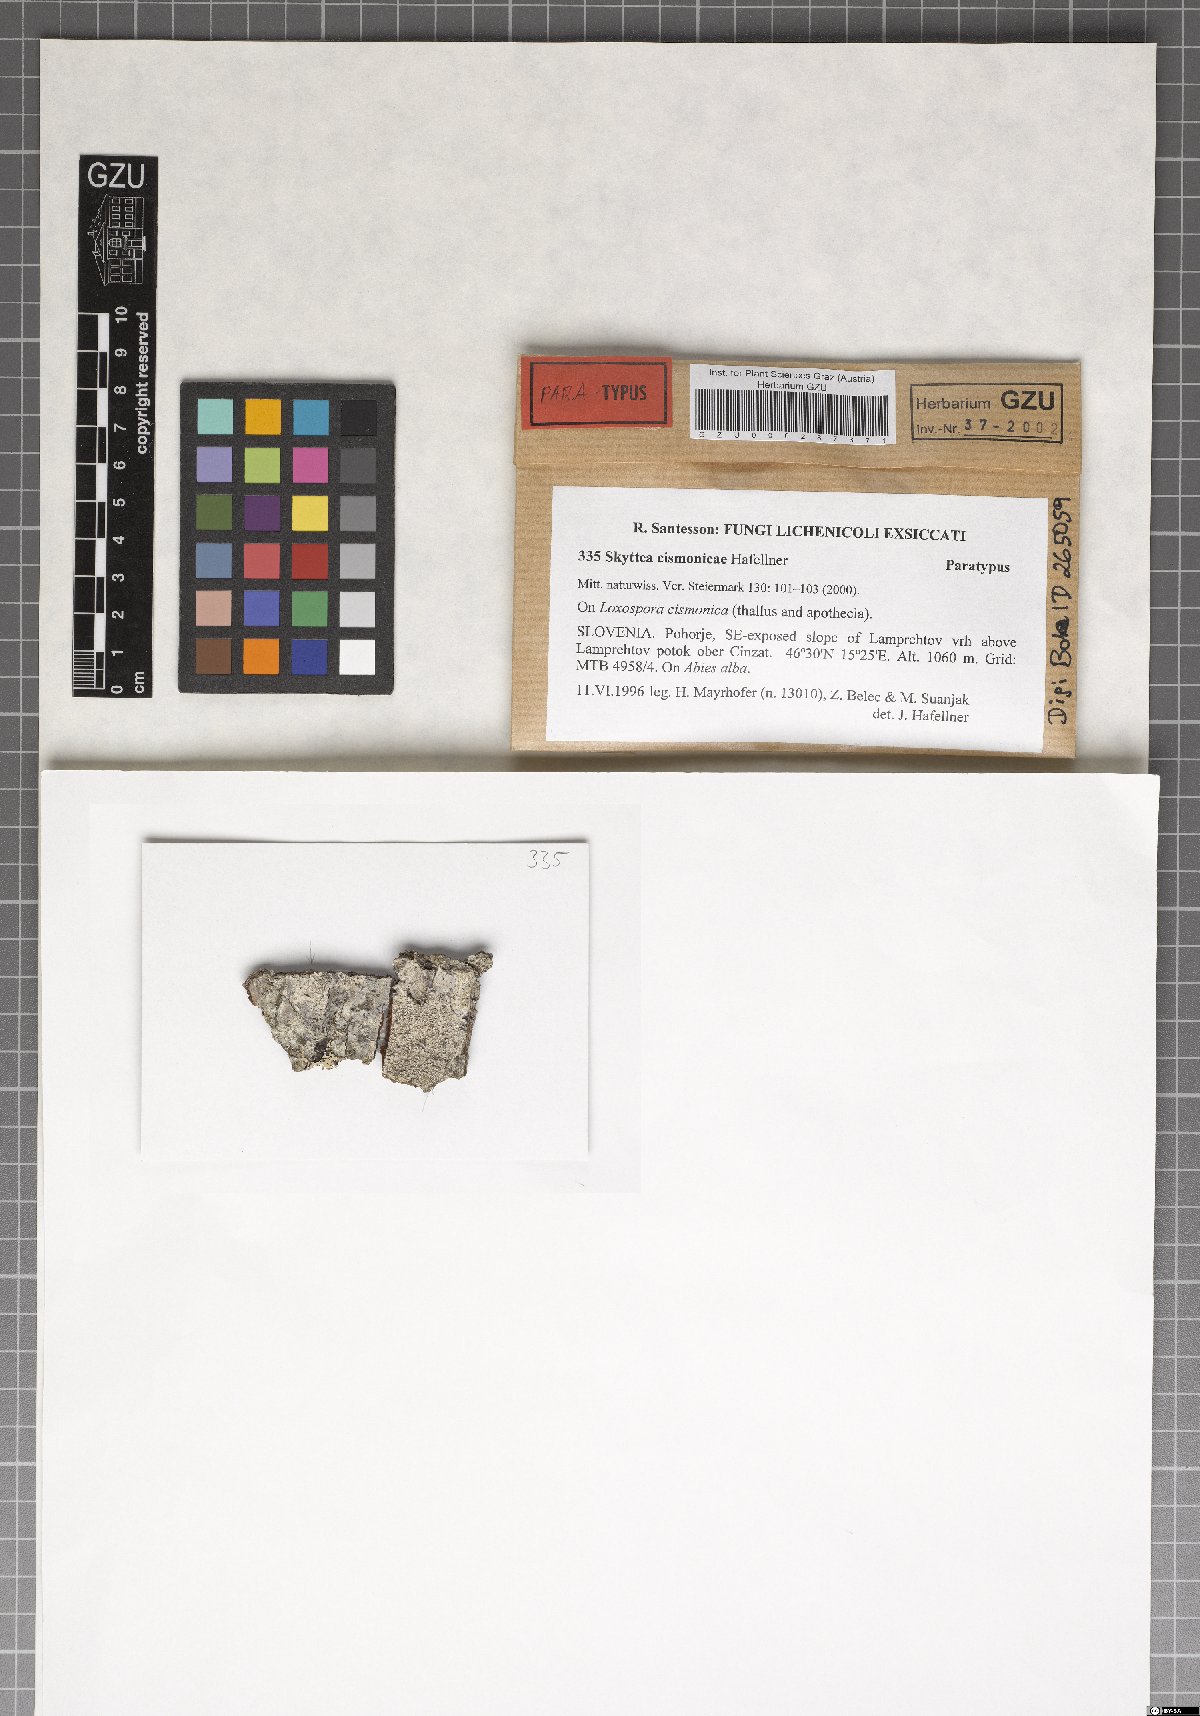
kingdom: Fungi
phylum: Ascomycota
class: Leotiomycetes
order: Helotiales
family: Cordieritidaceae
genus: Skyttea
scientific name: Skyttea cismonicae
